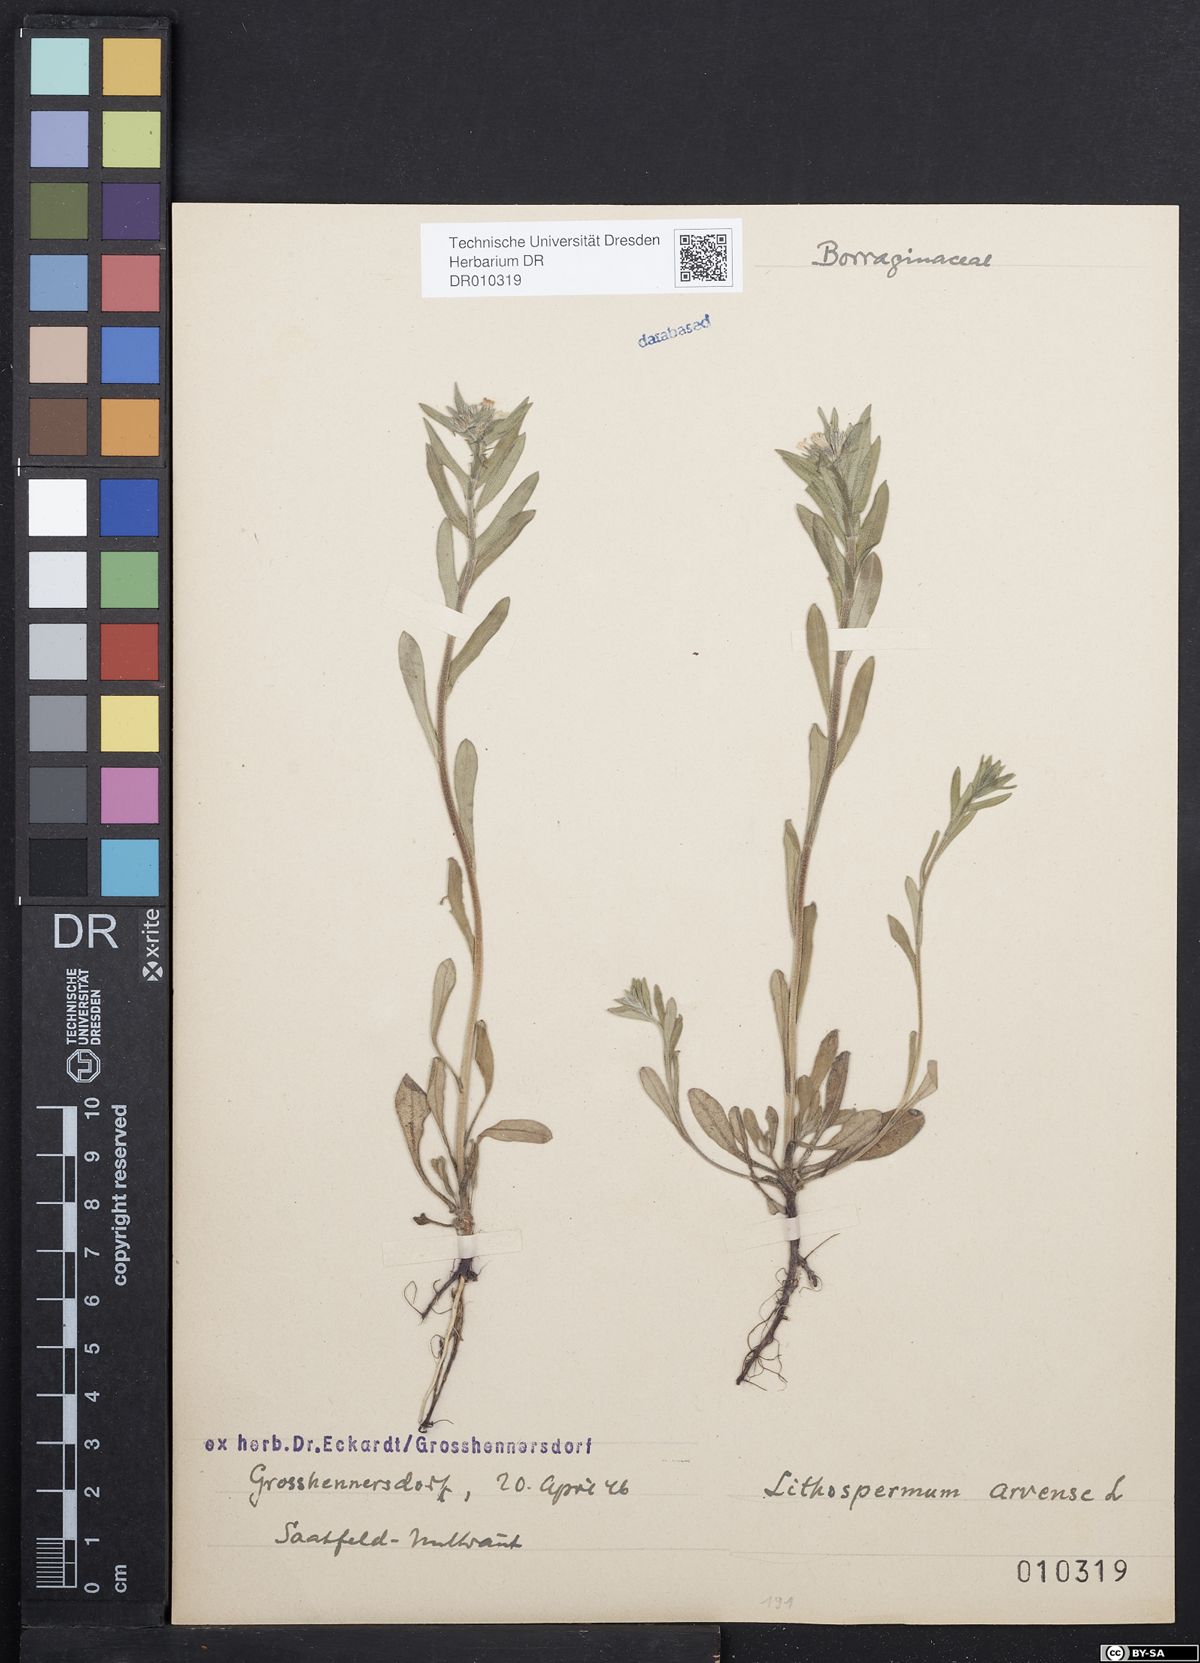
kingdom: Plantae
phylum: Tracheophyta
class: Magnoliopsida
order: Boraginales
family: Boraginaceae
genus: Buglossoides
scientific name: Buglossoides arvensis
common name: Corn gromwell
